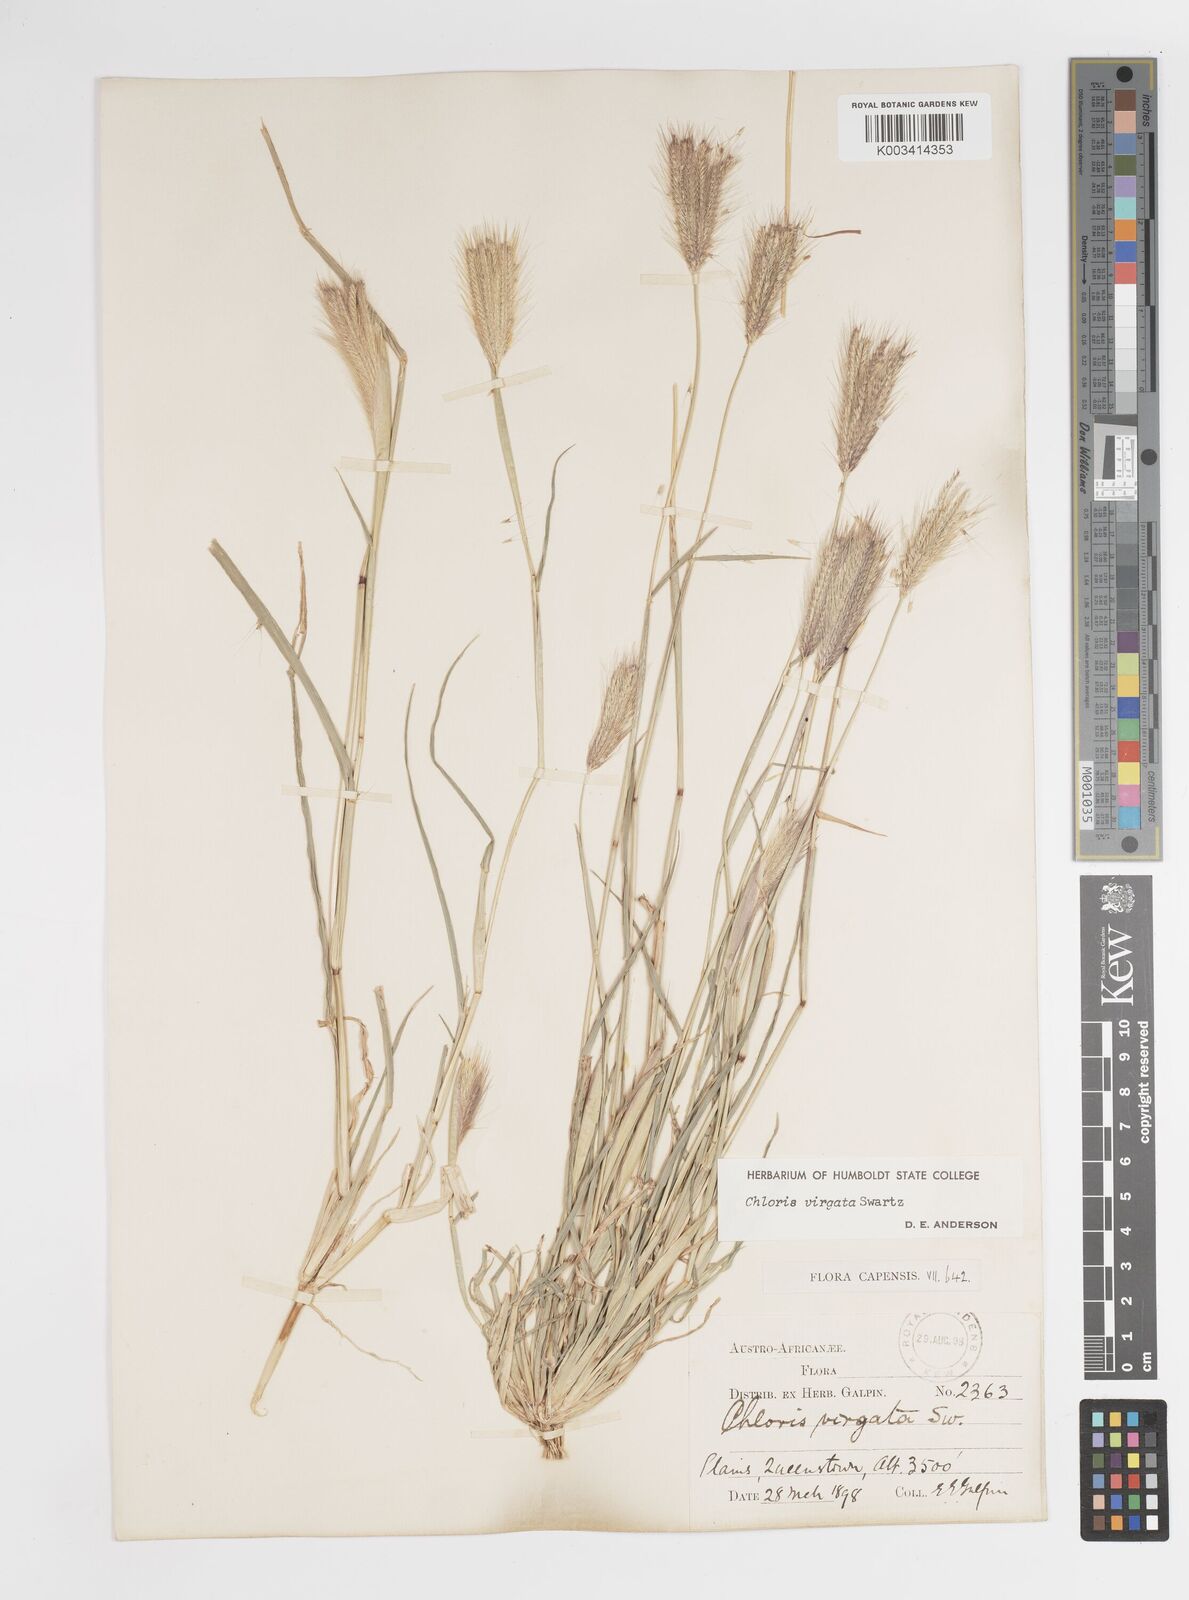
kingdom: Plantae
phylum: Tracheophyta
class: Liliopsida
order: Poales
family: Poaceae
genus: Chloris
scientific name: Chloris virgata
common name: Feathery rhodes-grass
